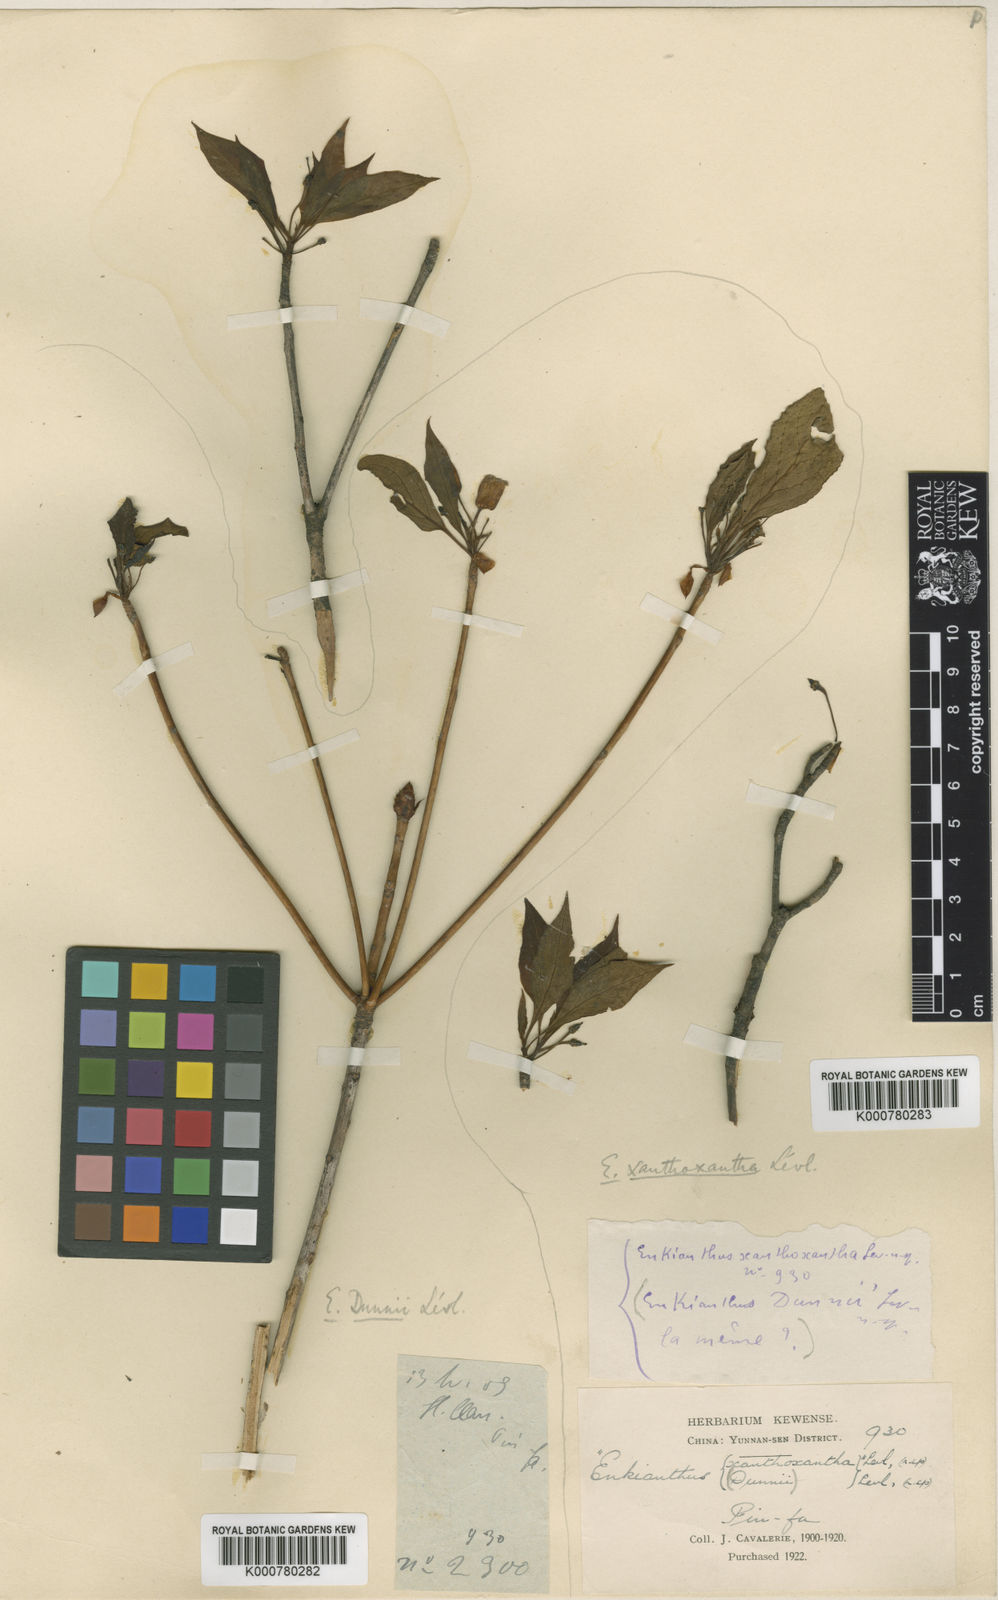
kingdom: Plantae
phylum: Tracheophyta
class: Magnoliopsida
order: Ericales
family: Ericaceae
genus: Enkianthus
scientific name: Enkianthus serrulatus
